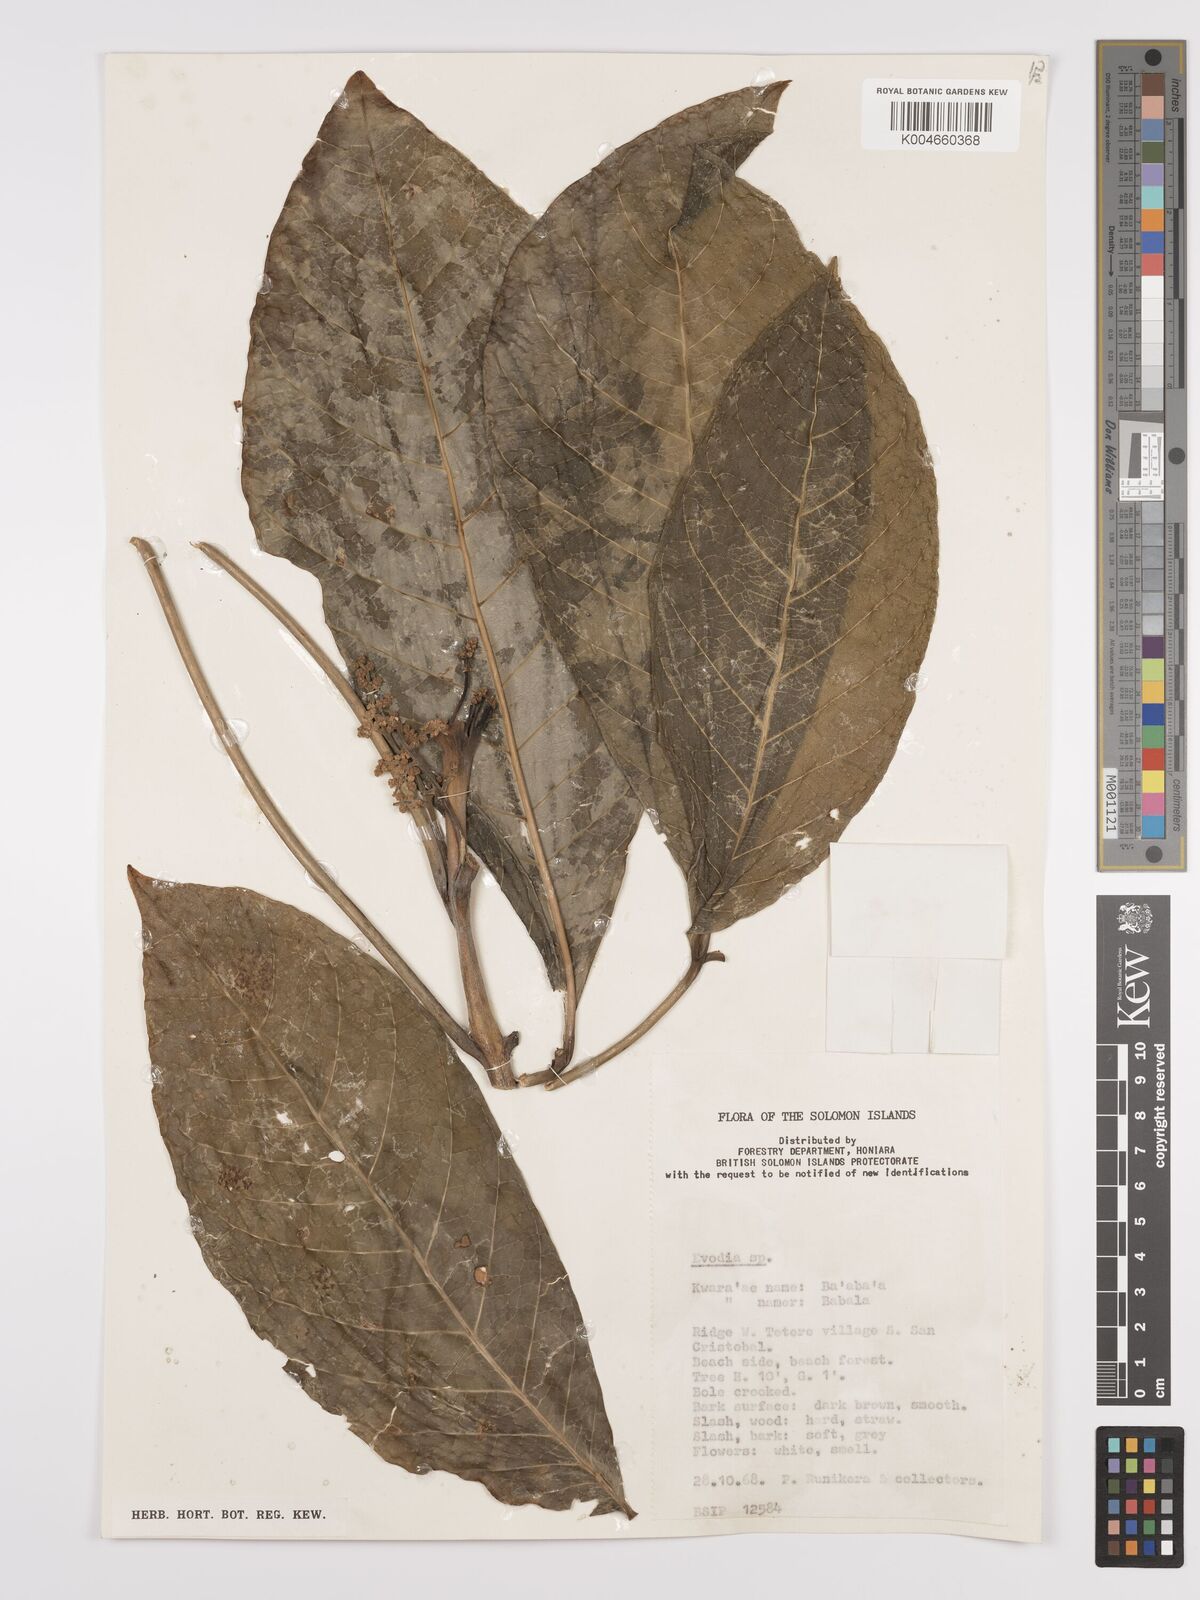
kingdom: Plantae
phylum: Tracheophyta
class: Magnoliopsida
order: Sapindales
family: Rutaceae
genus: Euodia
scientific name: Euodia
